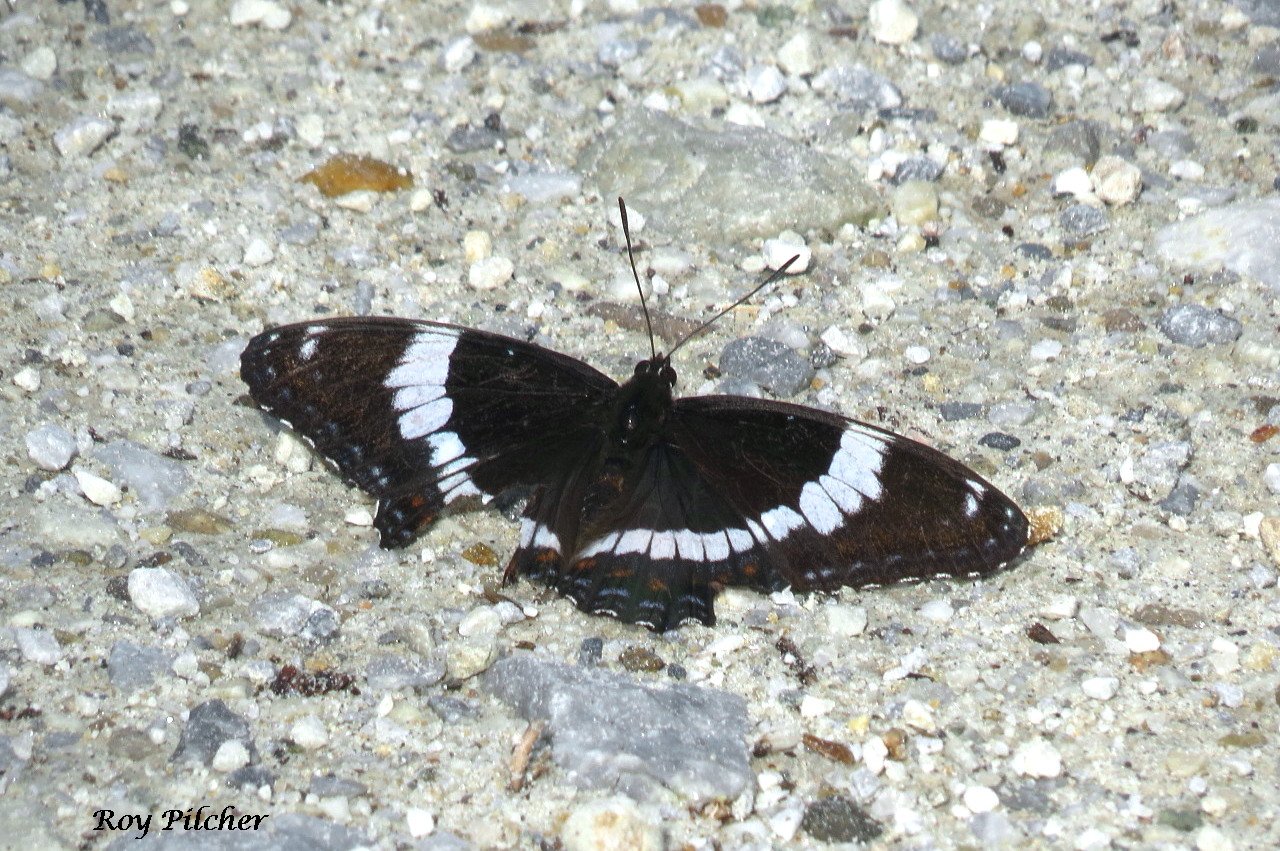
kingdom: Animalia
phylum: Arthropoda
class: Insecta
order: Lepidoptera
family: Nymphalidae
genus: Limenitis
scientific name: Limenitis arthemis
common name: Red-spotted Admiral
